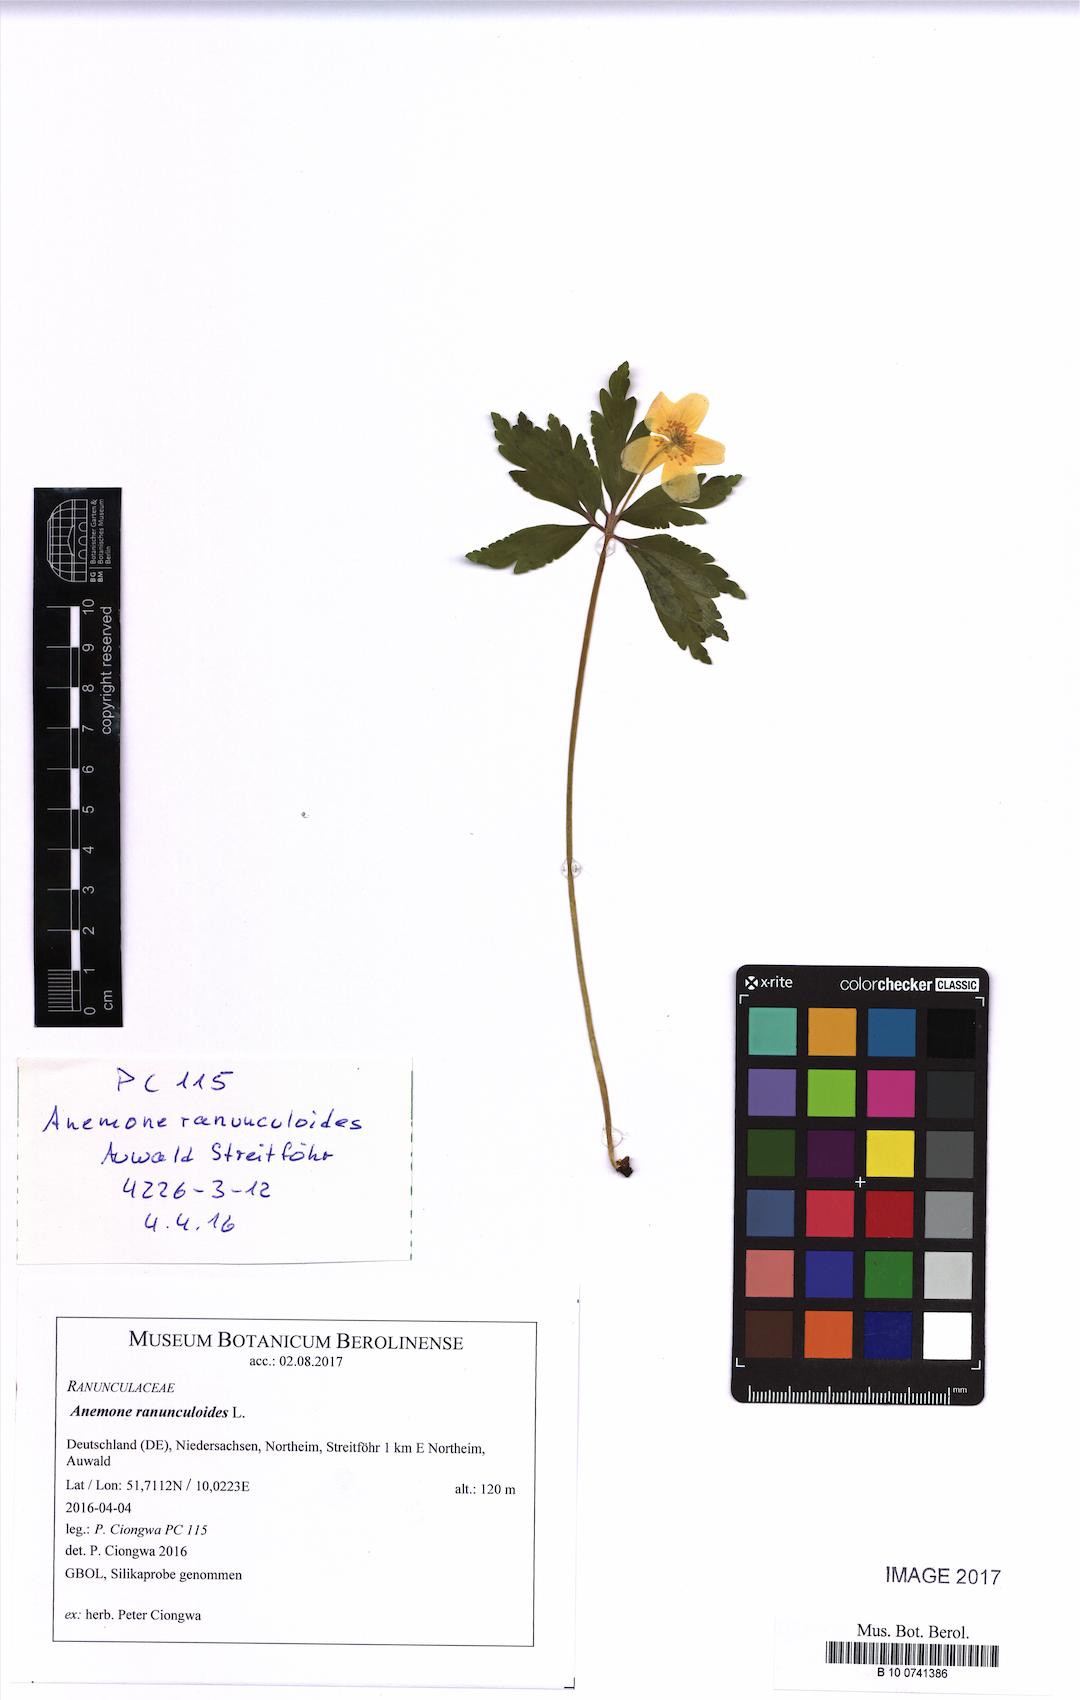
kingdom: Plantae
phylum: Tracheophyta
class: Magnoliopsida
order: Ranunculales
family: Ranunculaceae
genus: Anemone
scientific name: Anemone ranunculoides
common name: Yellow anemone
